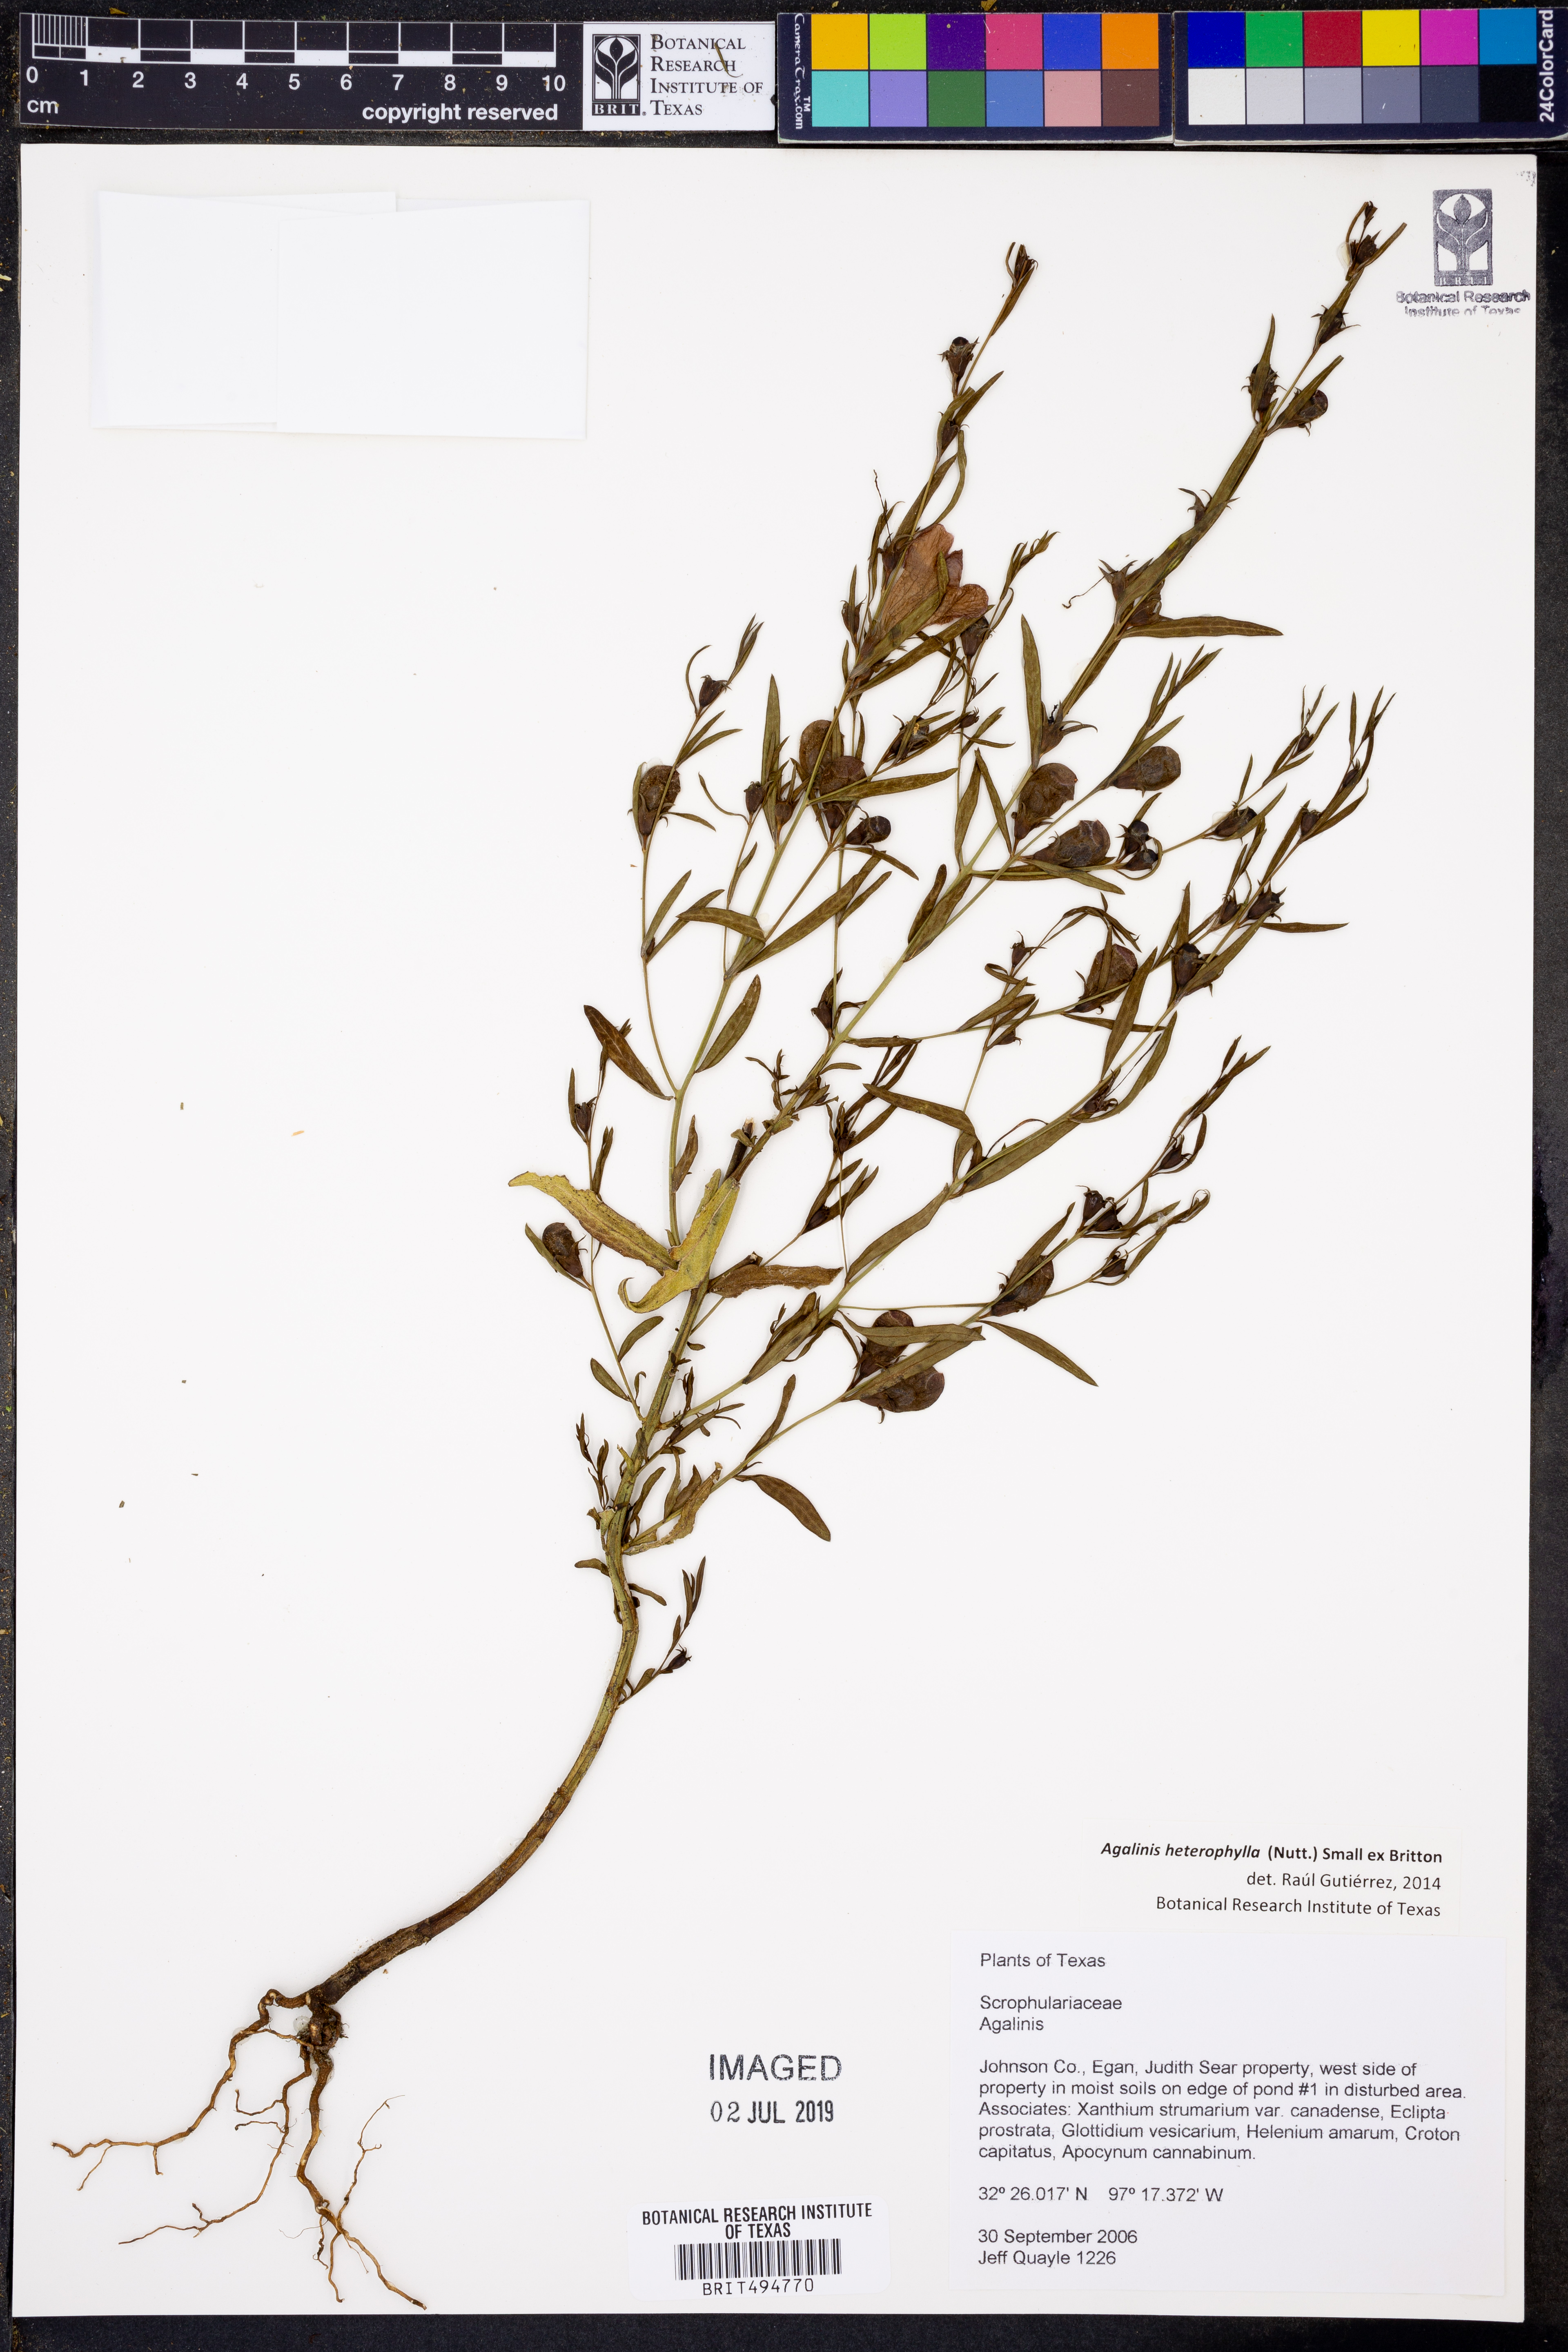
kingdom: Plantae
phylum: Tracheophyta
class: Magnoliopsida
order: Lamiales
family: Orobanchaceae
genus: Agalinis
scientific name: Agalinis heterophylla
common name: Prairie agalinis
